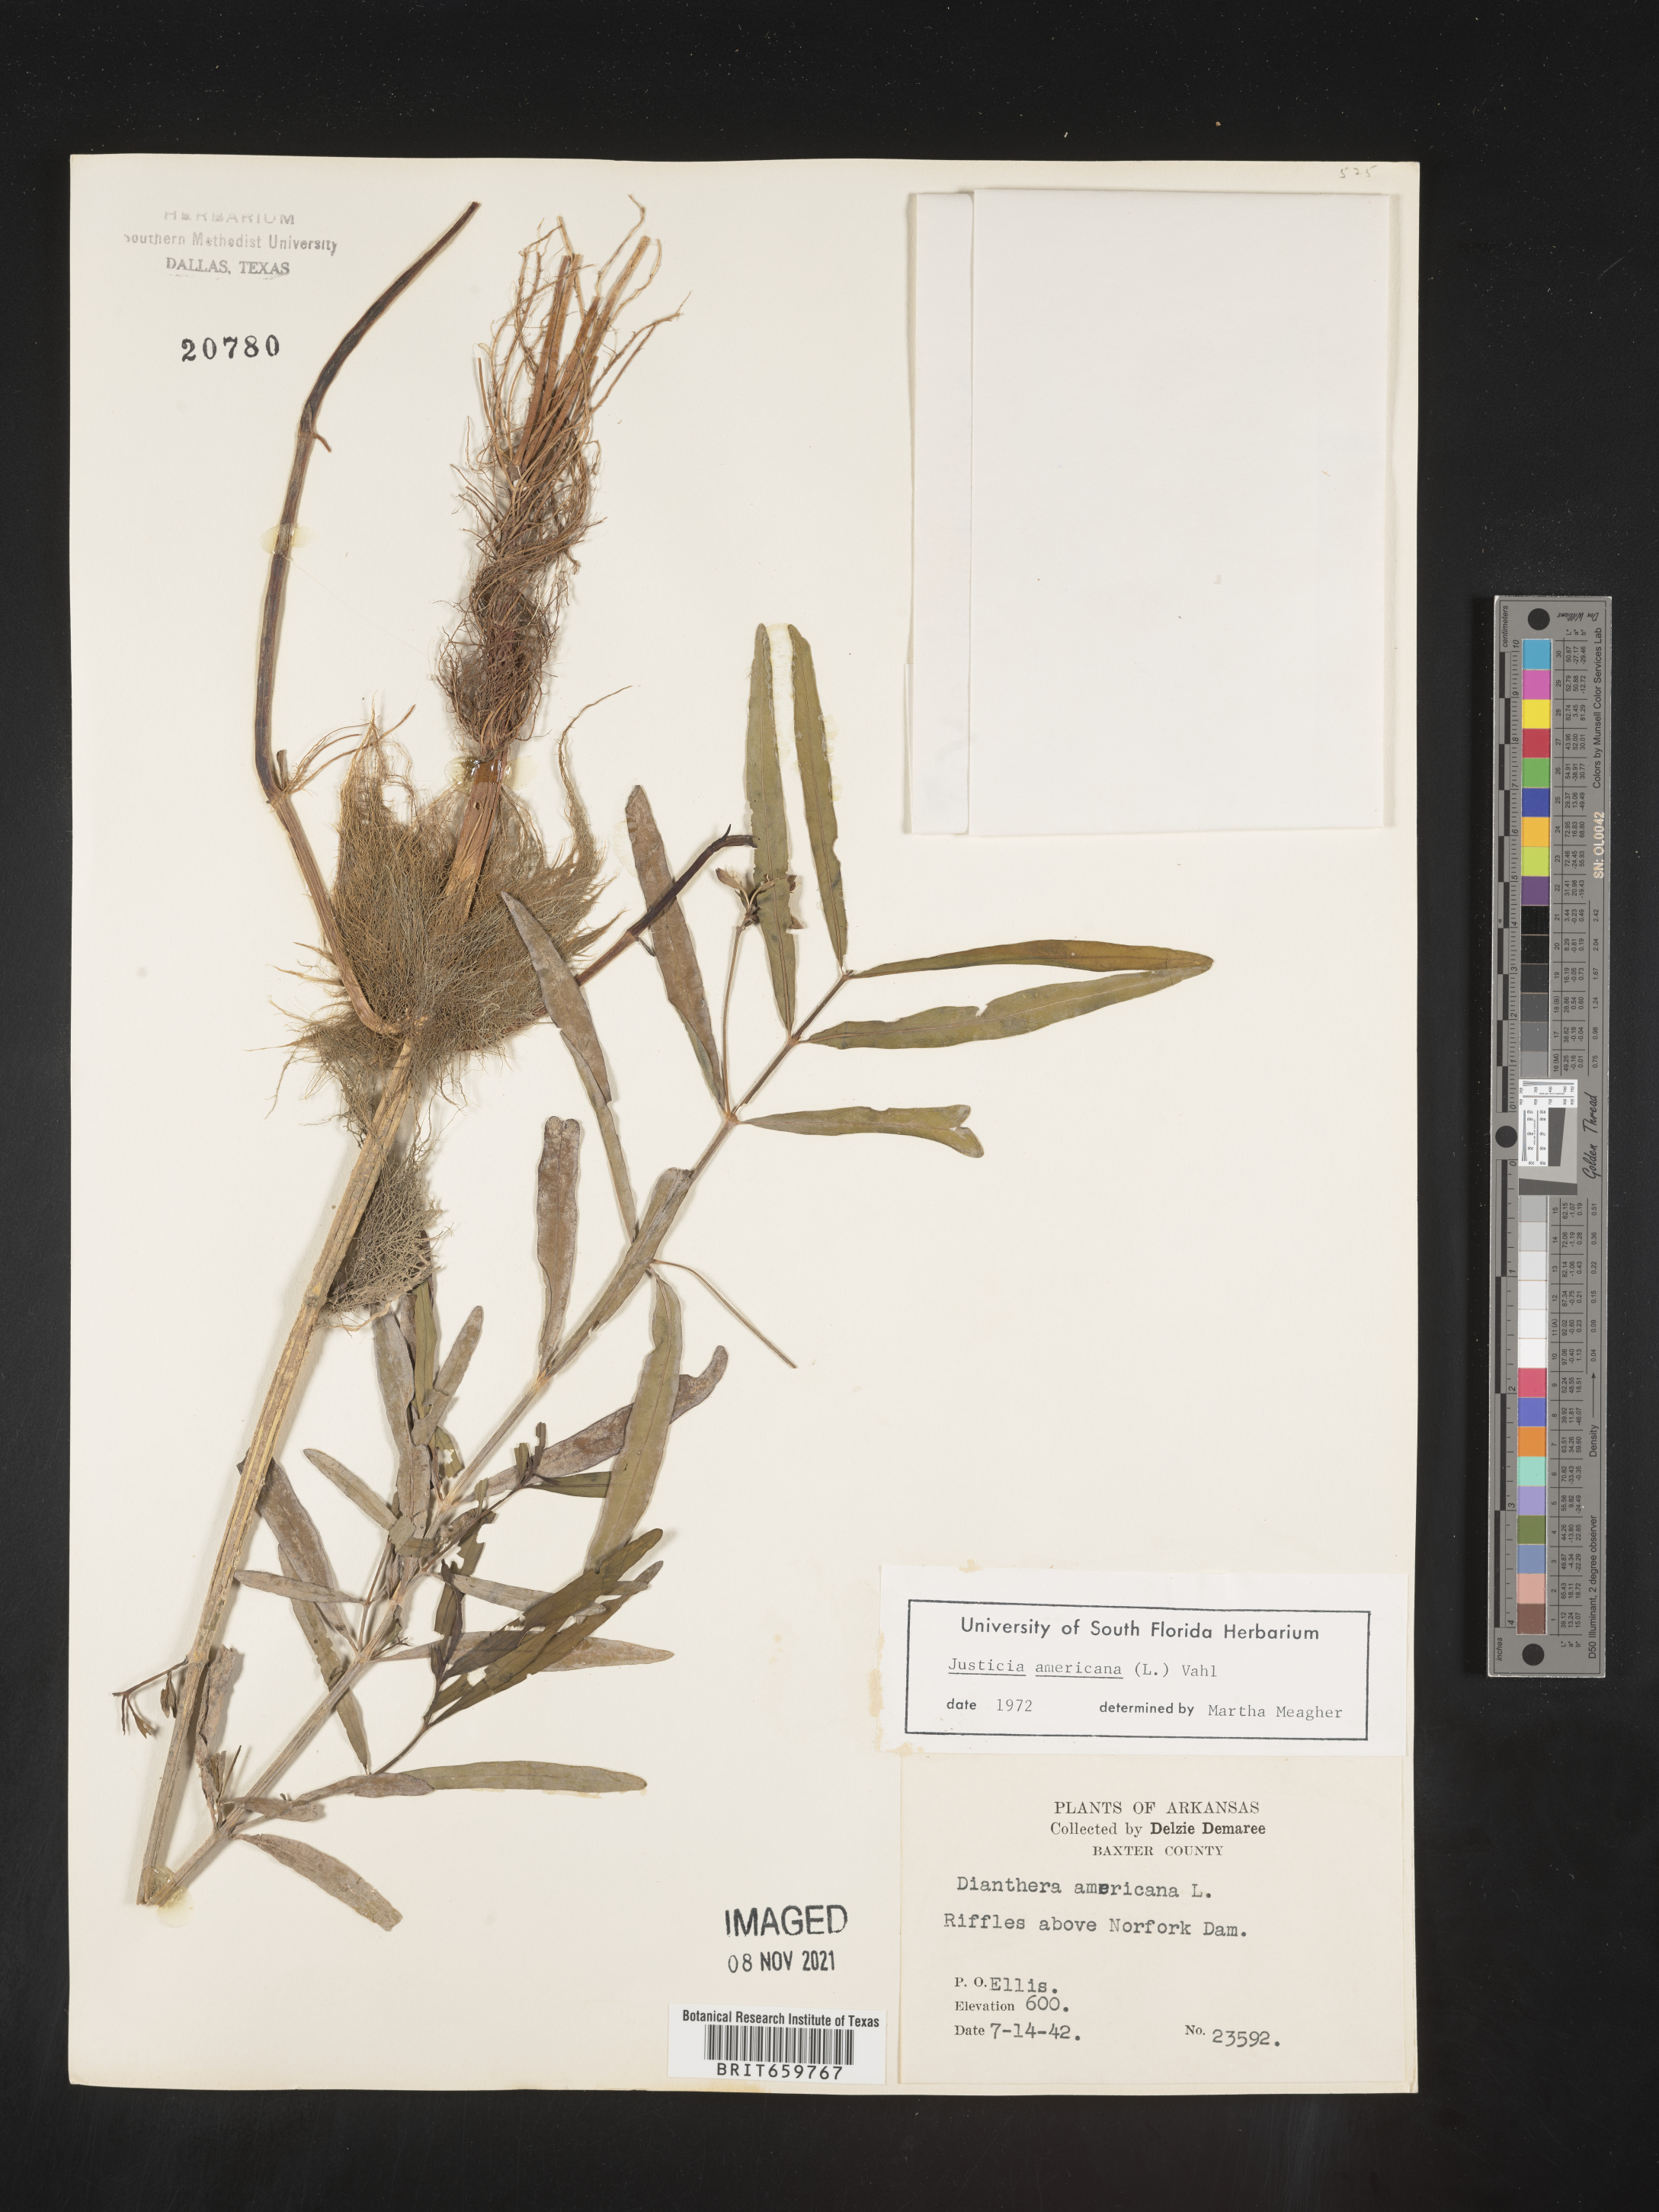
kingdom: Plantae
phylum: Tracheophyta
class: Magnoliopsida
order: Lamiales
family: Acanthaceae
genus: Dianthera
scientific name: Dianthera americana
